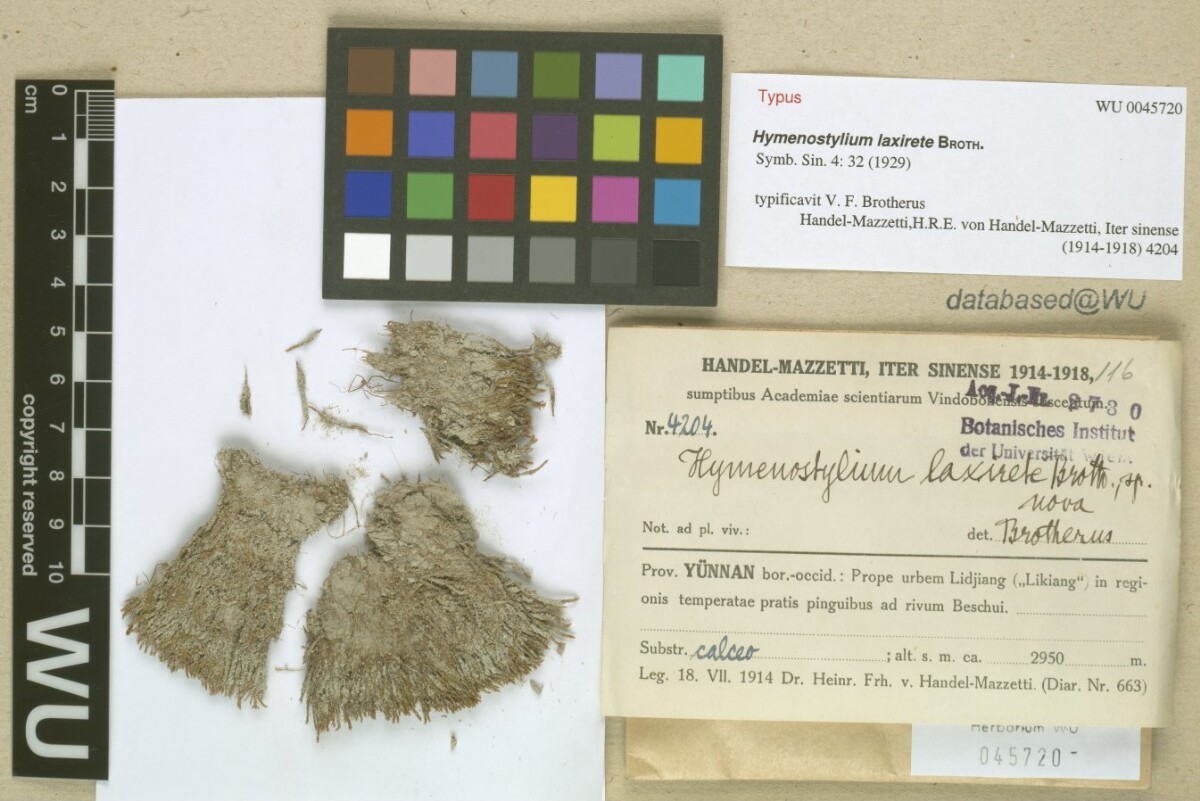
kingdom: Plantae
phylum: Bryophyta
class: Bryopsida
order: Pottiales
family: Pottiaceae
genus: Gymnostomum
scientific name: Gymnostomum laxirete
